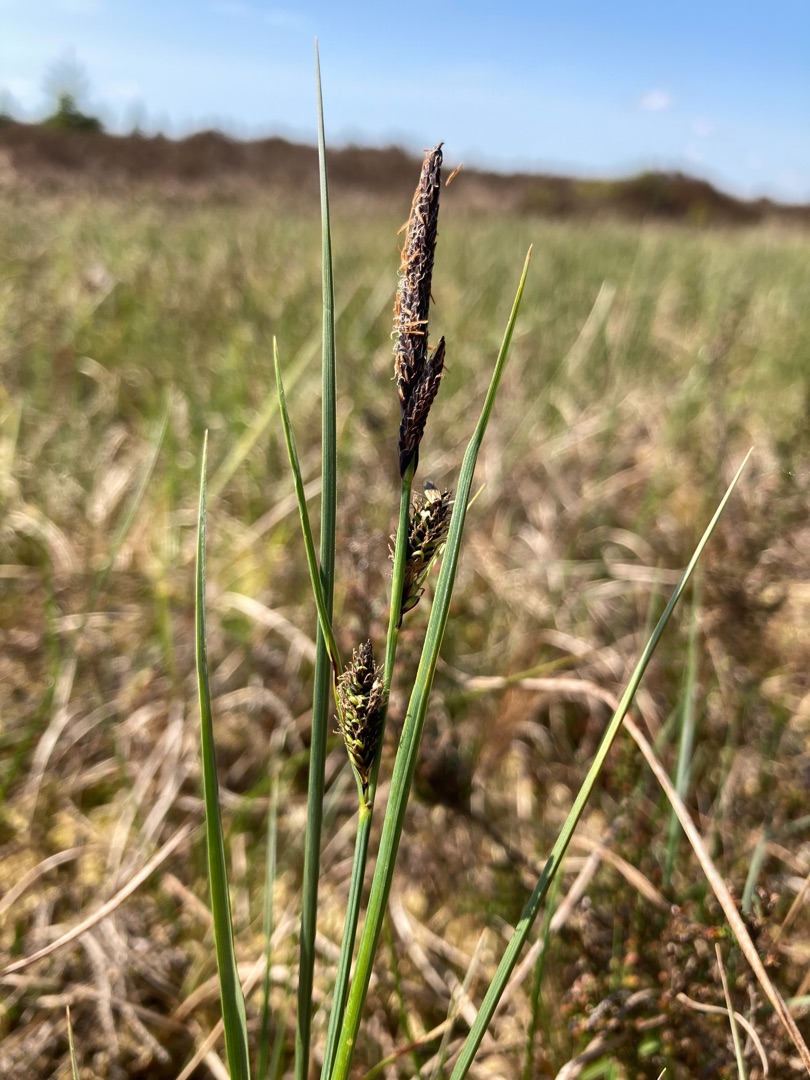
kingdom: Plantae
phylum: Tracheophyta
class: Liliopsida
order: Poales
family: Cyperaceae
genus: Carex
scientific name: Carex nigra
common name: Almindelig star
